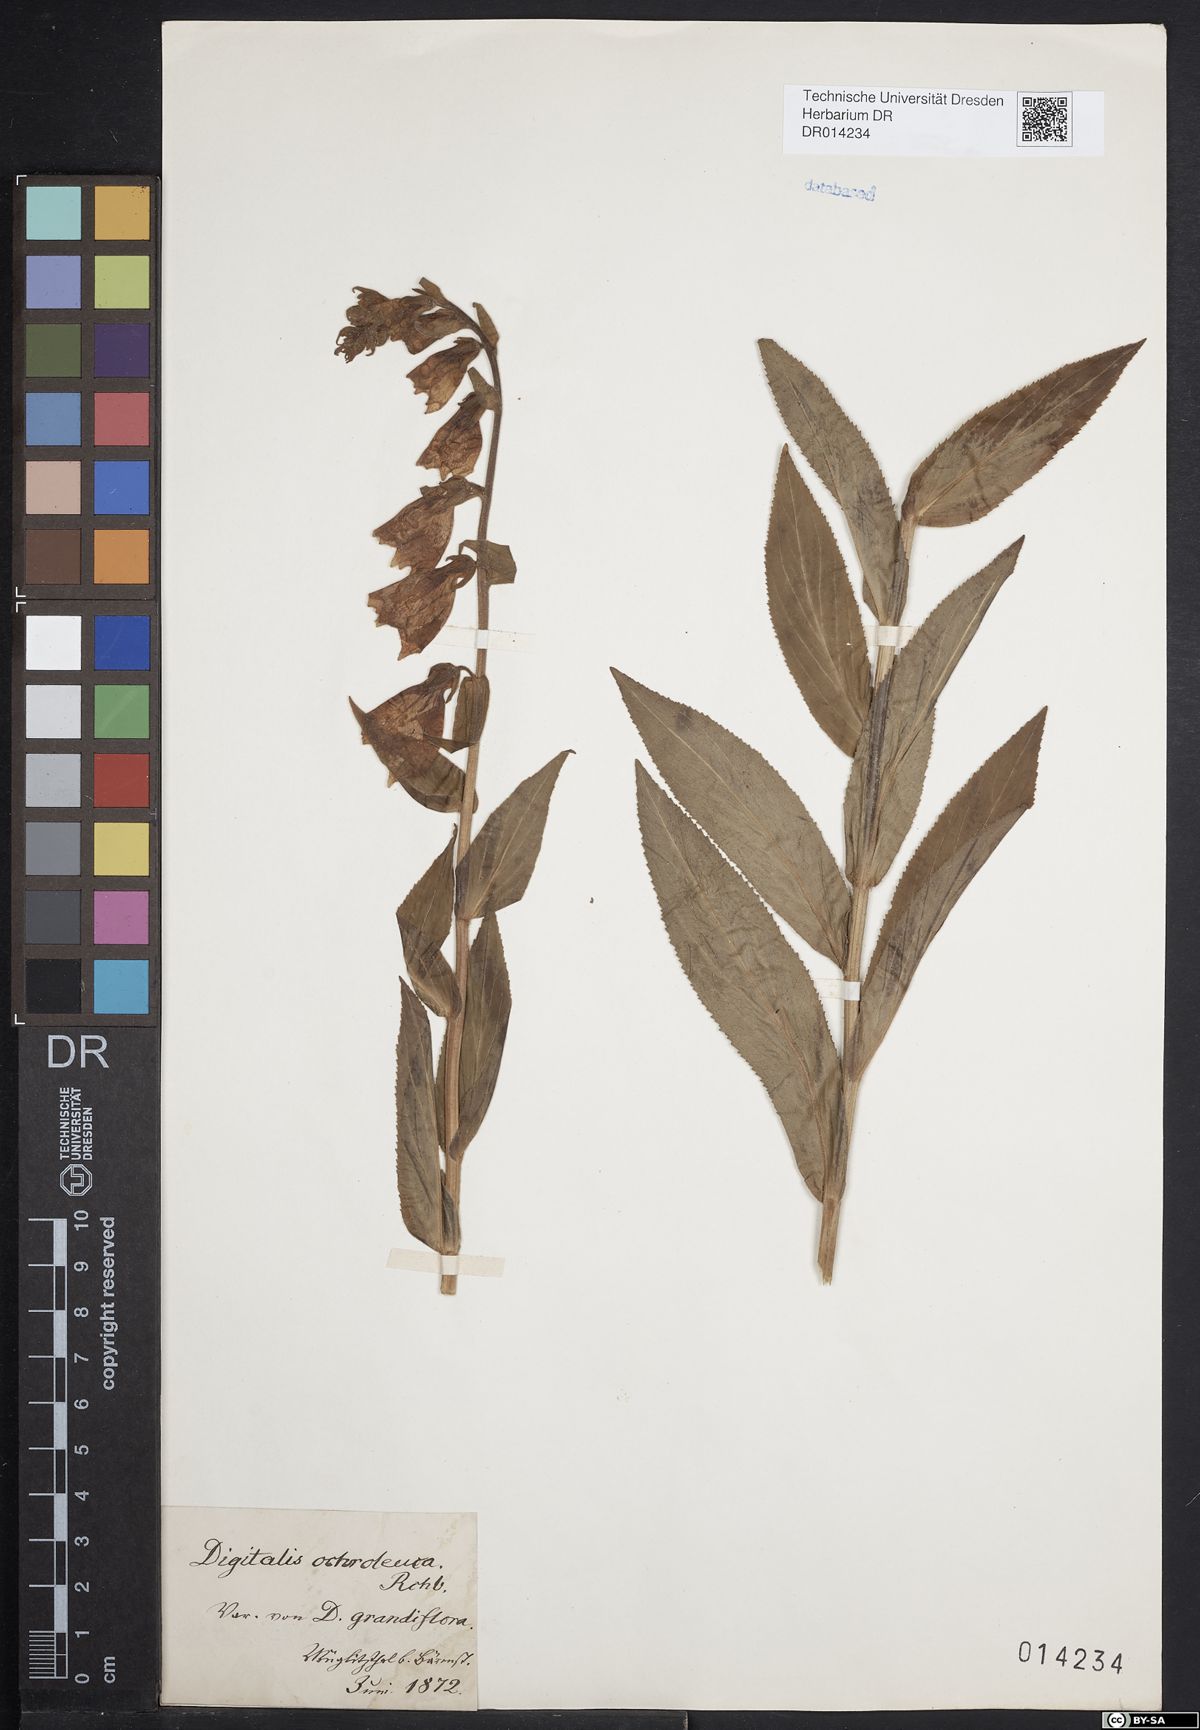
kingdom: Plantae
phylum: Tracheophyta
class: Magnoliopsida
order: Lamiales
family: Plantaginaceae
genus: Digitalis
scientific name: Digitalis grandiflora
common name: Yellow foxglove
